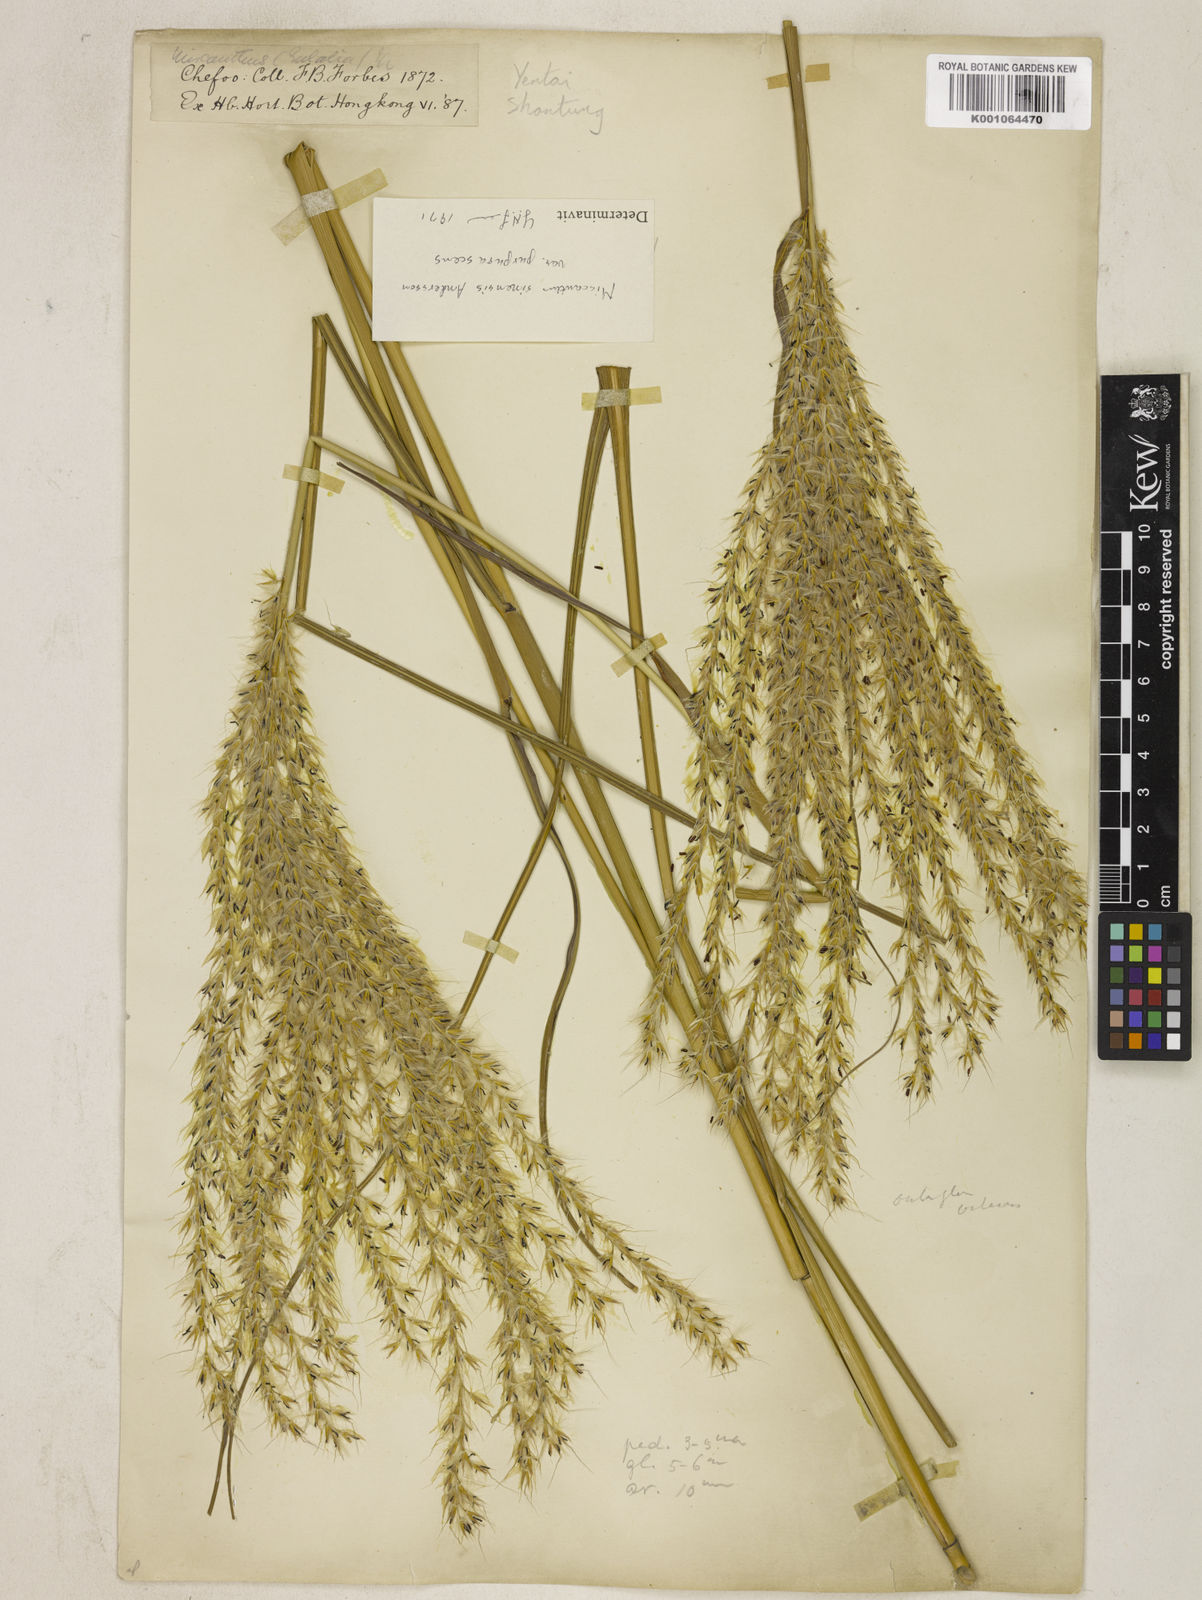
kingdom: Plantae
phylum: Tracheophyta
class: Liliopsida
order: Poales
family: Poaceae
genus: Miscanthus
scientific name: Miscanthus sinensis
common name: Chinese silvergrass
